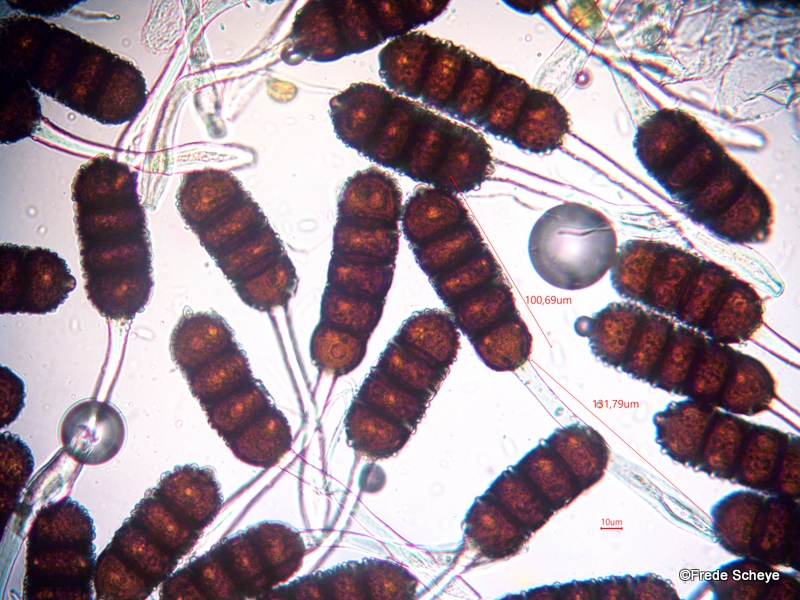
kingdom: Fungi
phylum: Basidiomycota
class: Pucciniomycetes
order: Pucciniales
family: Phragmidiaceae
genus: Phragmidium
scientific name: Phragmidium violaceum
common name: violet flercellerust
